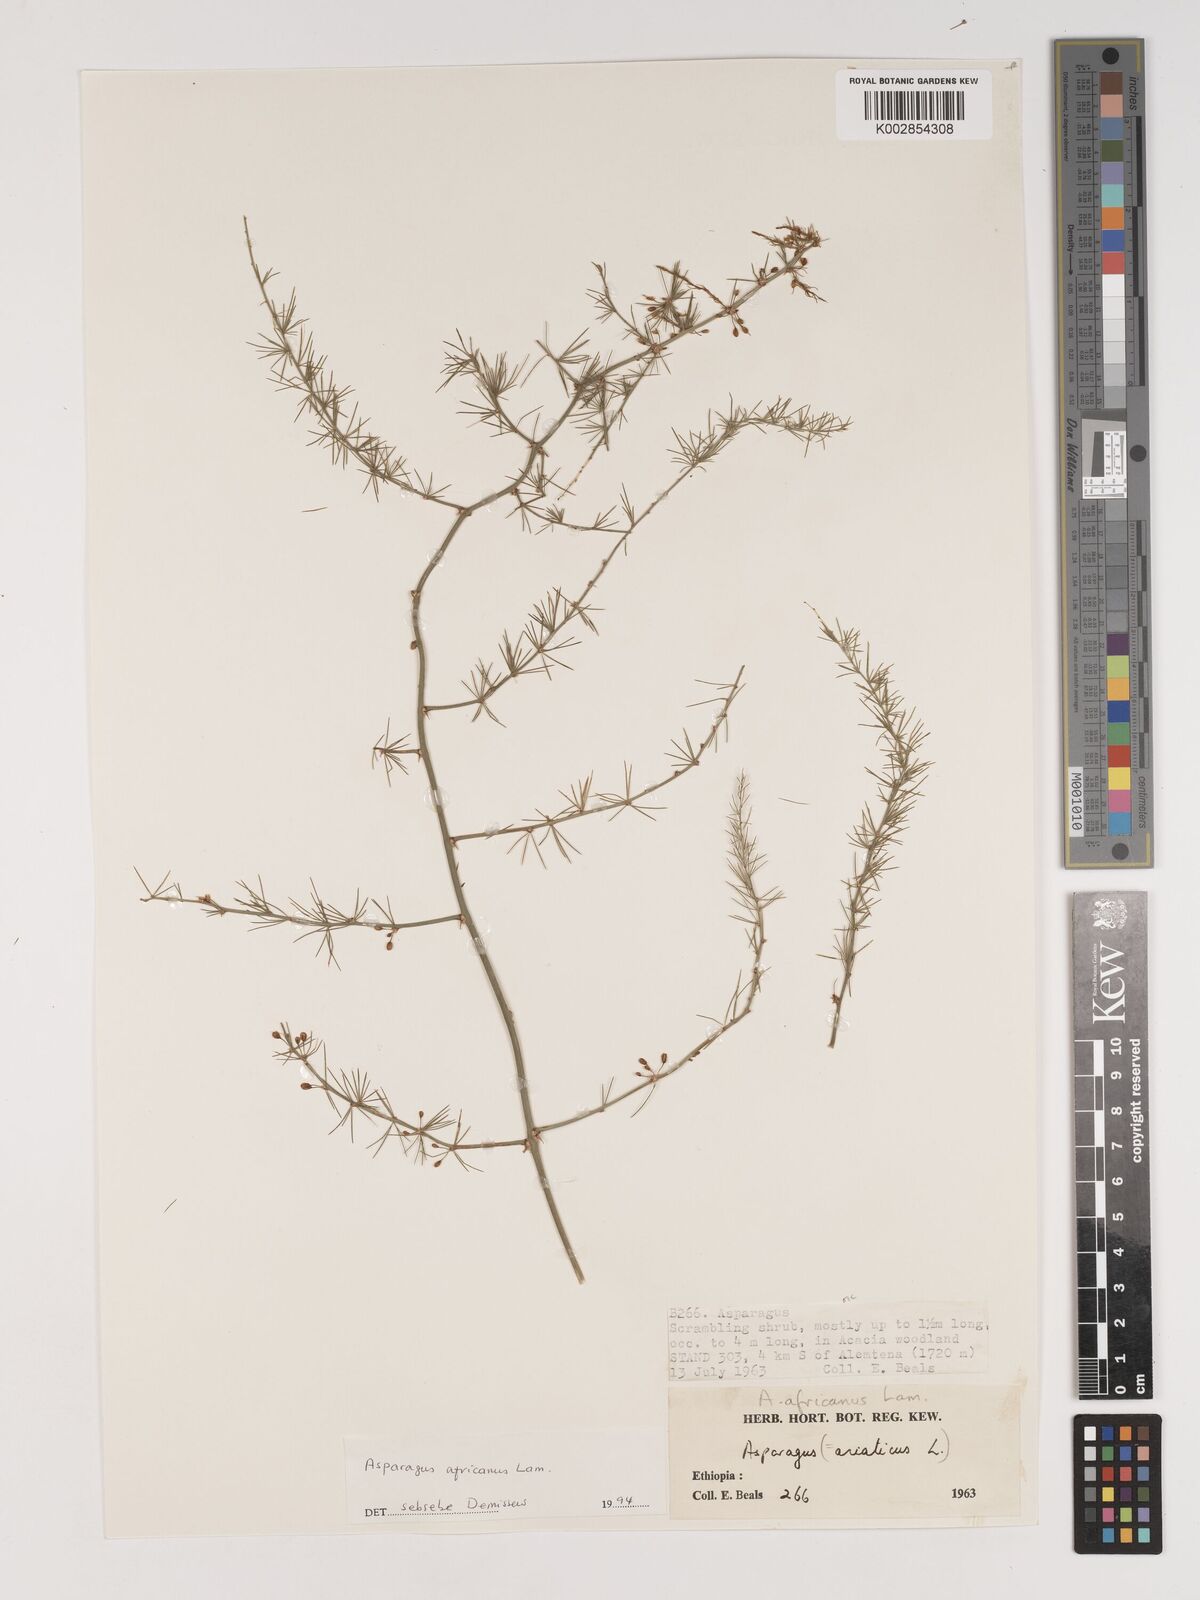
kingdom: Plantae
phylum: Tracheophyta
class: Liliopsida
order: Asparagales
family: Asparagaceae
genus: Asparagus
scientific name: Asparagus africanus
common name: Asparagus-fern
